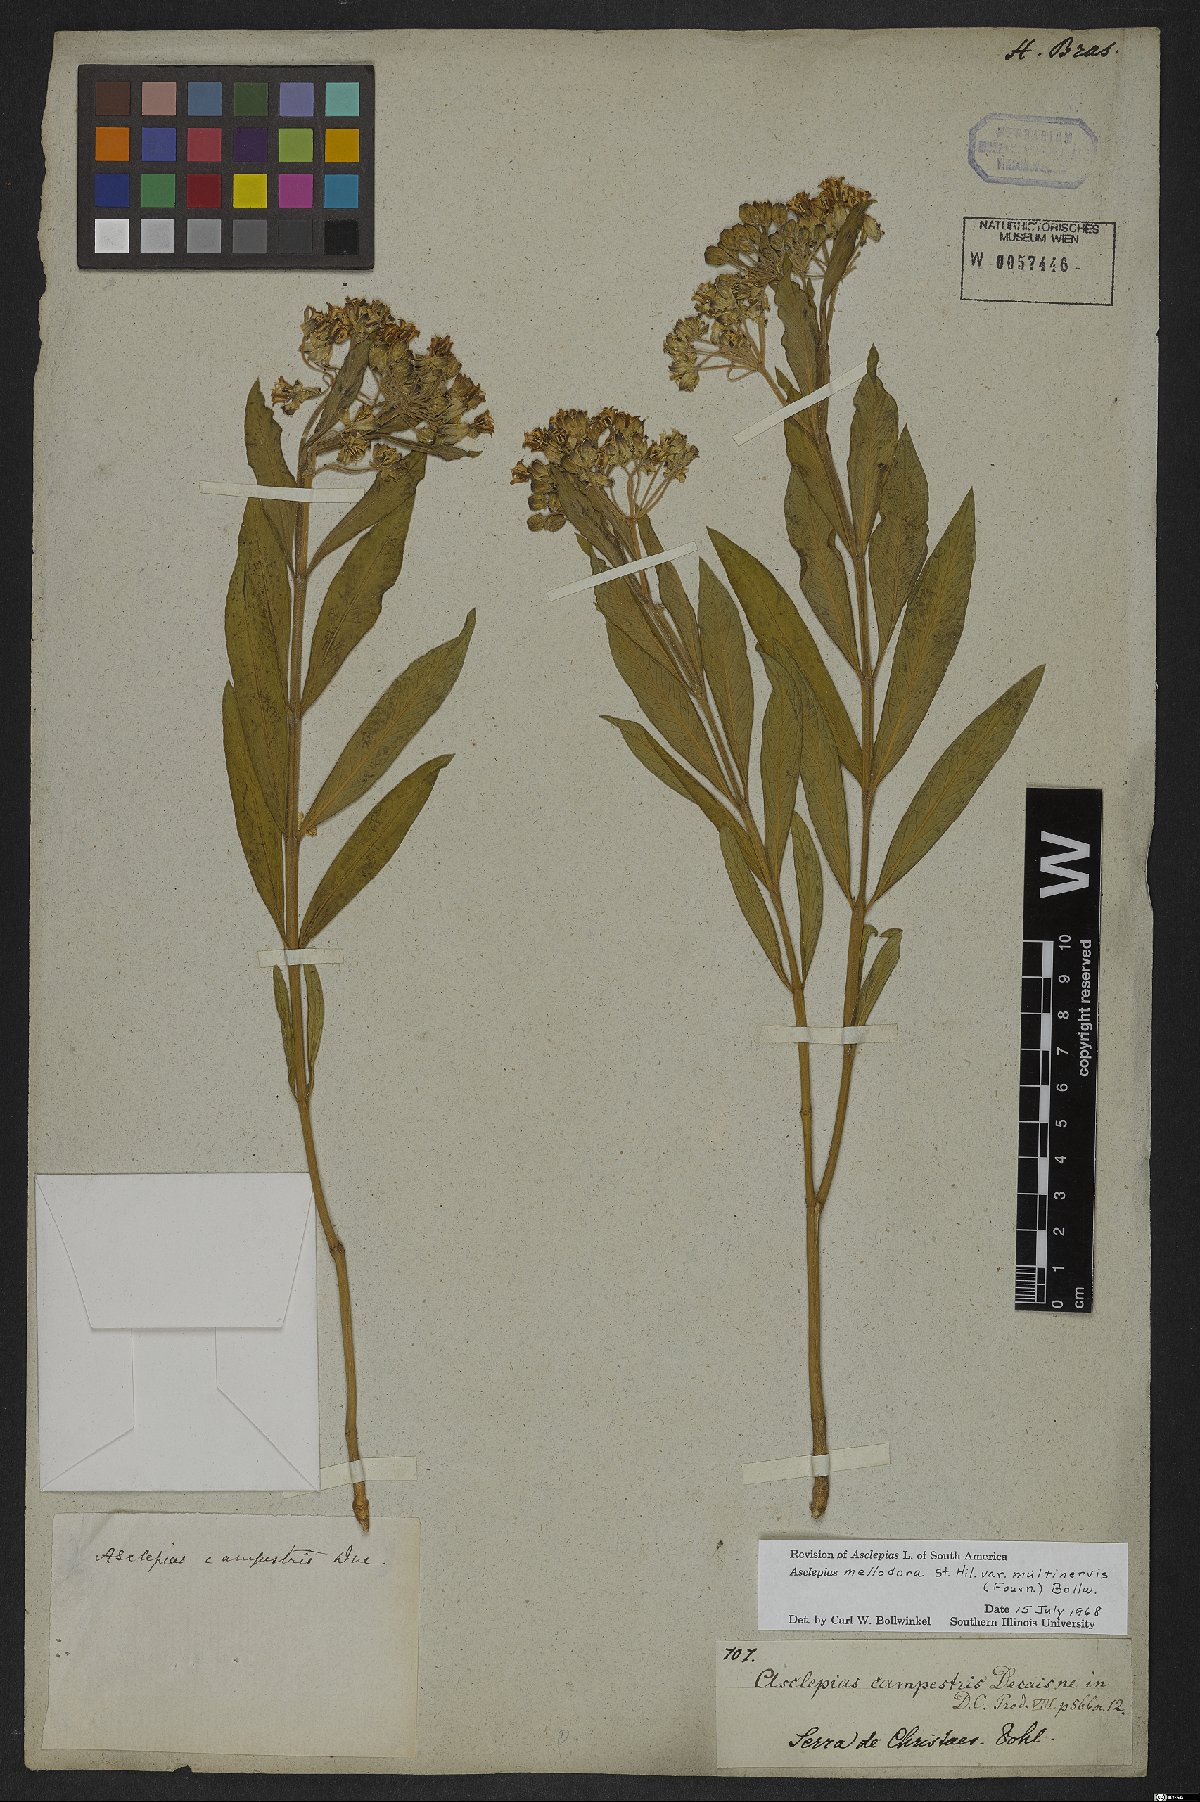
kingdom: Plantae
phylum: Tracheophyta
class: Magnoliopsida
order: Gentianales
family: Apocynaceae
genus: Asclepias
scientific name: Asclepias mellodora
